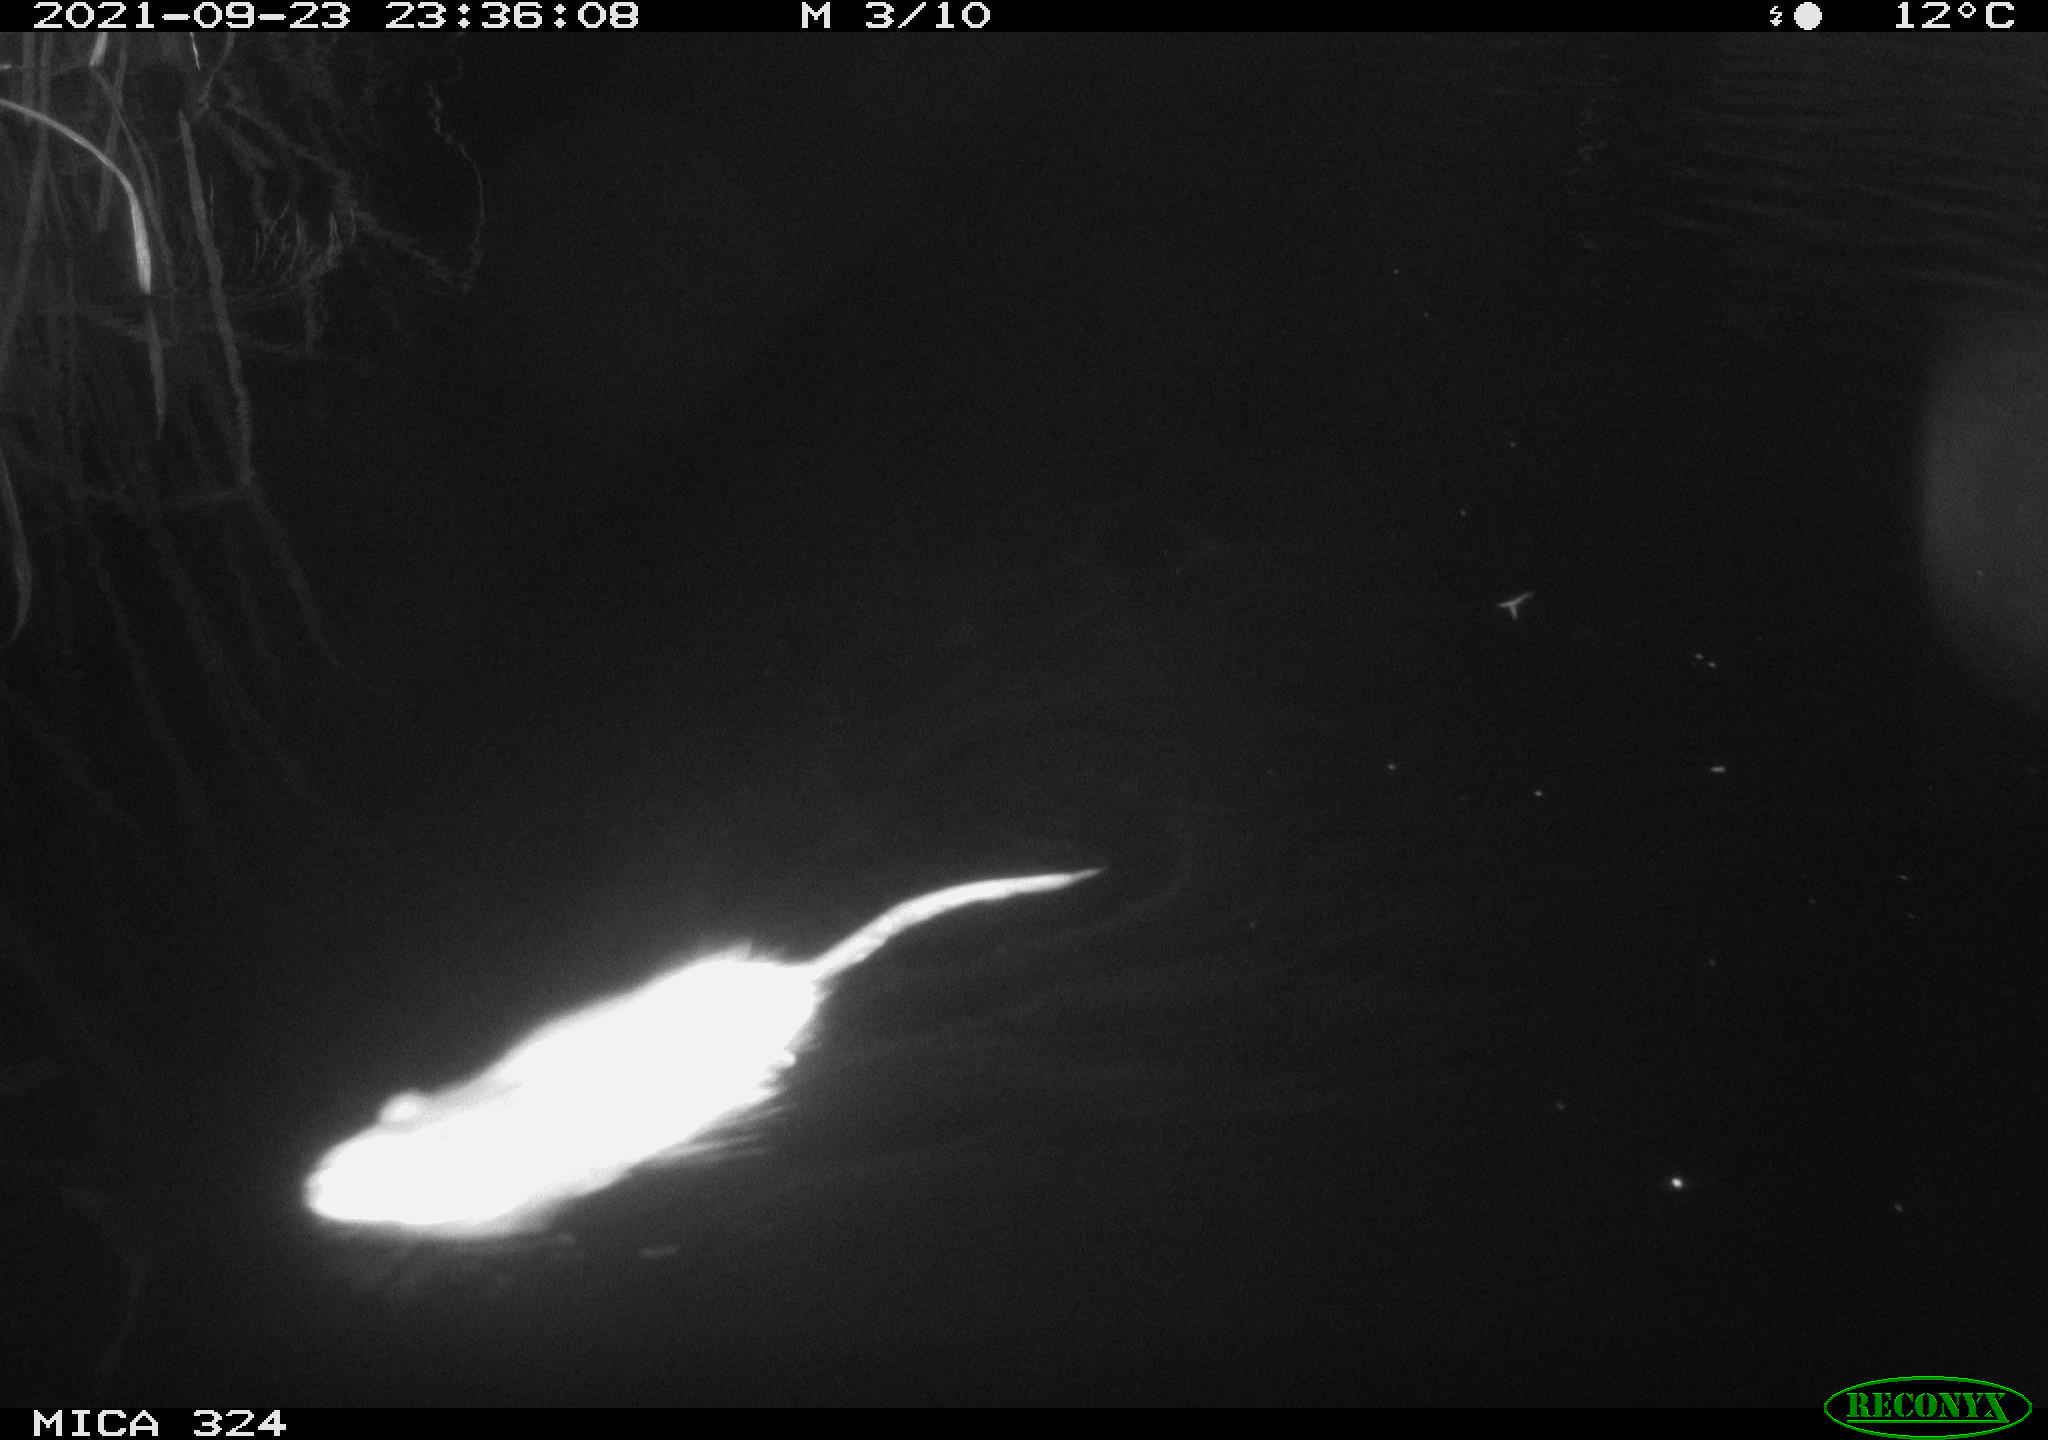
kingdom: Animalia
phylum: Chordata
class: Mammalia
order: Rodentia
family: Cricetidae
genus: Ondatra
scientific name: Ondatra zibethicus
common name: Muskrat
